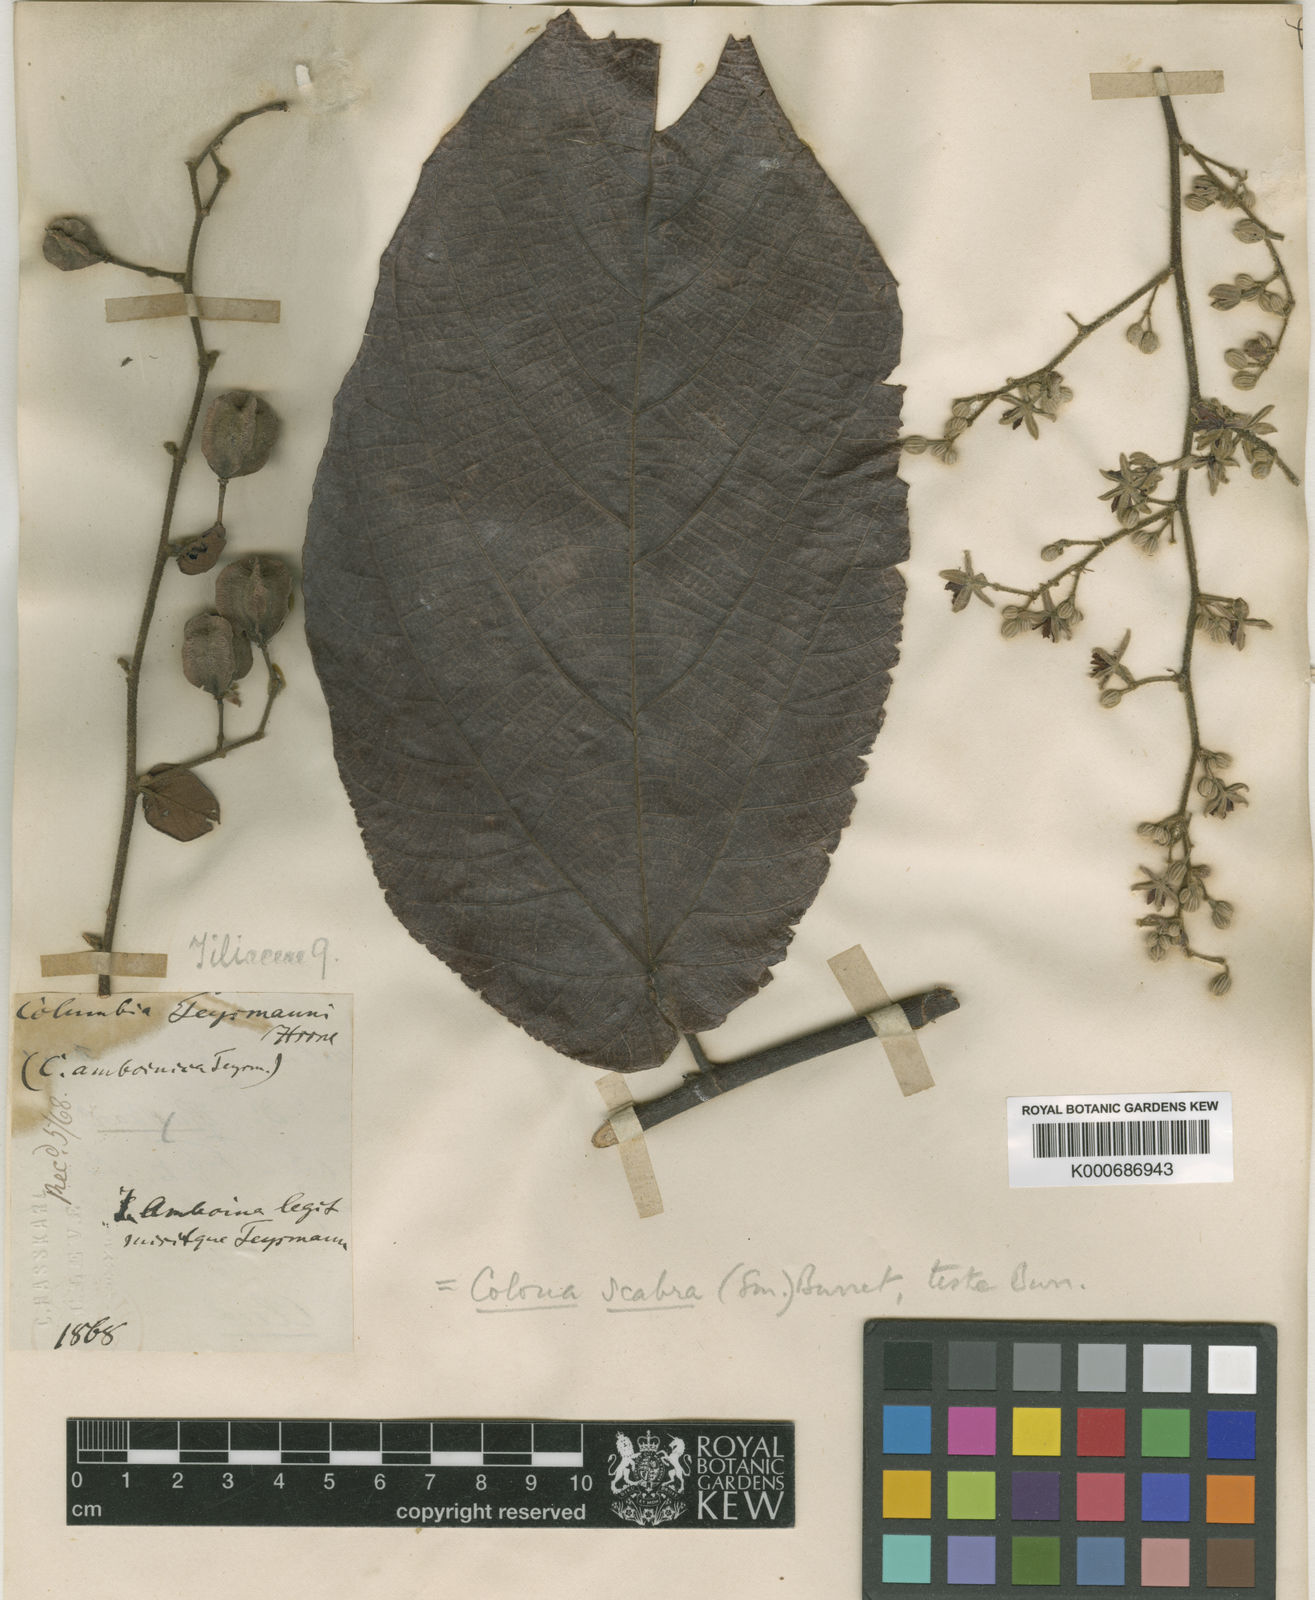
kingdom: Plantae
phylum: Tracheophyta
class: Magnoliopsida
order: Malvales
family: Malvaceae
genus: Colona
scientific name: Colona scabra
